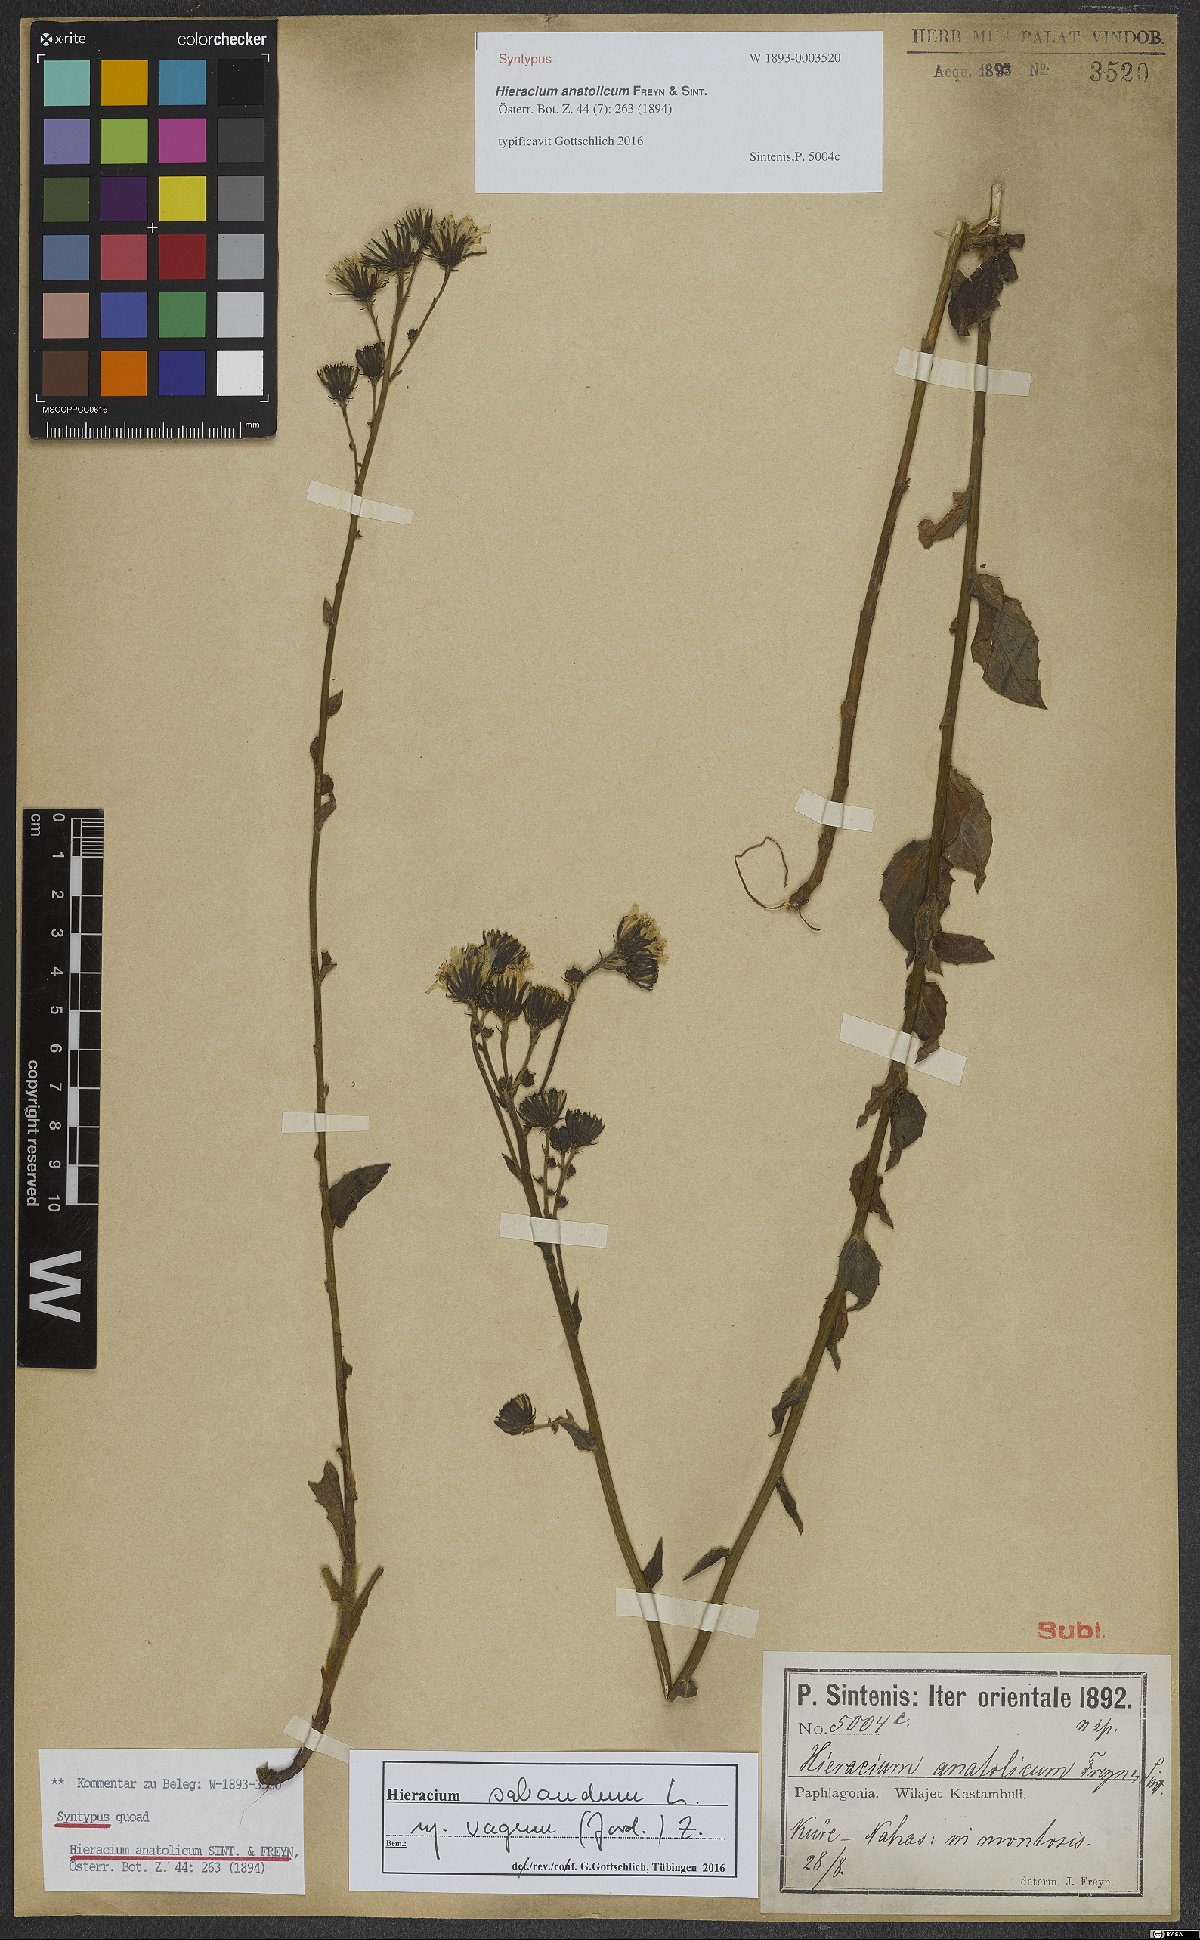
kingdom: Plantae
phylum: Tracheophyta
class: Magnoliopsida
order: Asterales
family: Asteraceae
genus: Hieracium
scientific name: Hieracium sabaudum
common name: New england hawkweed
